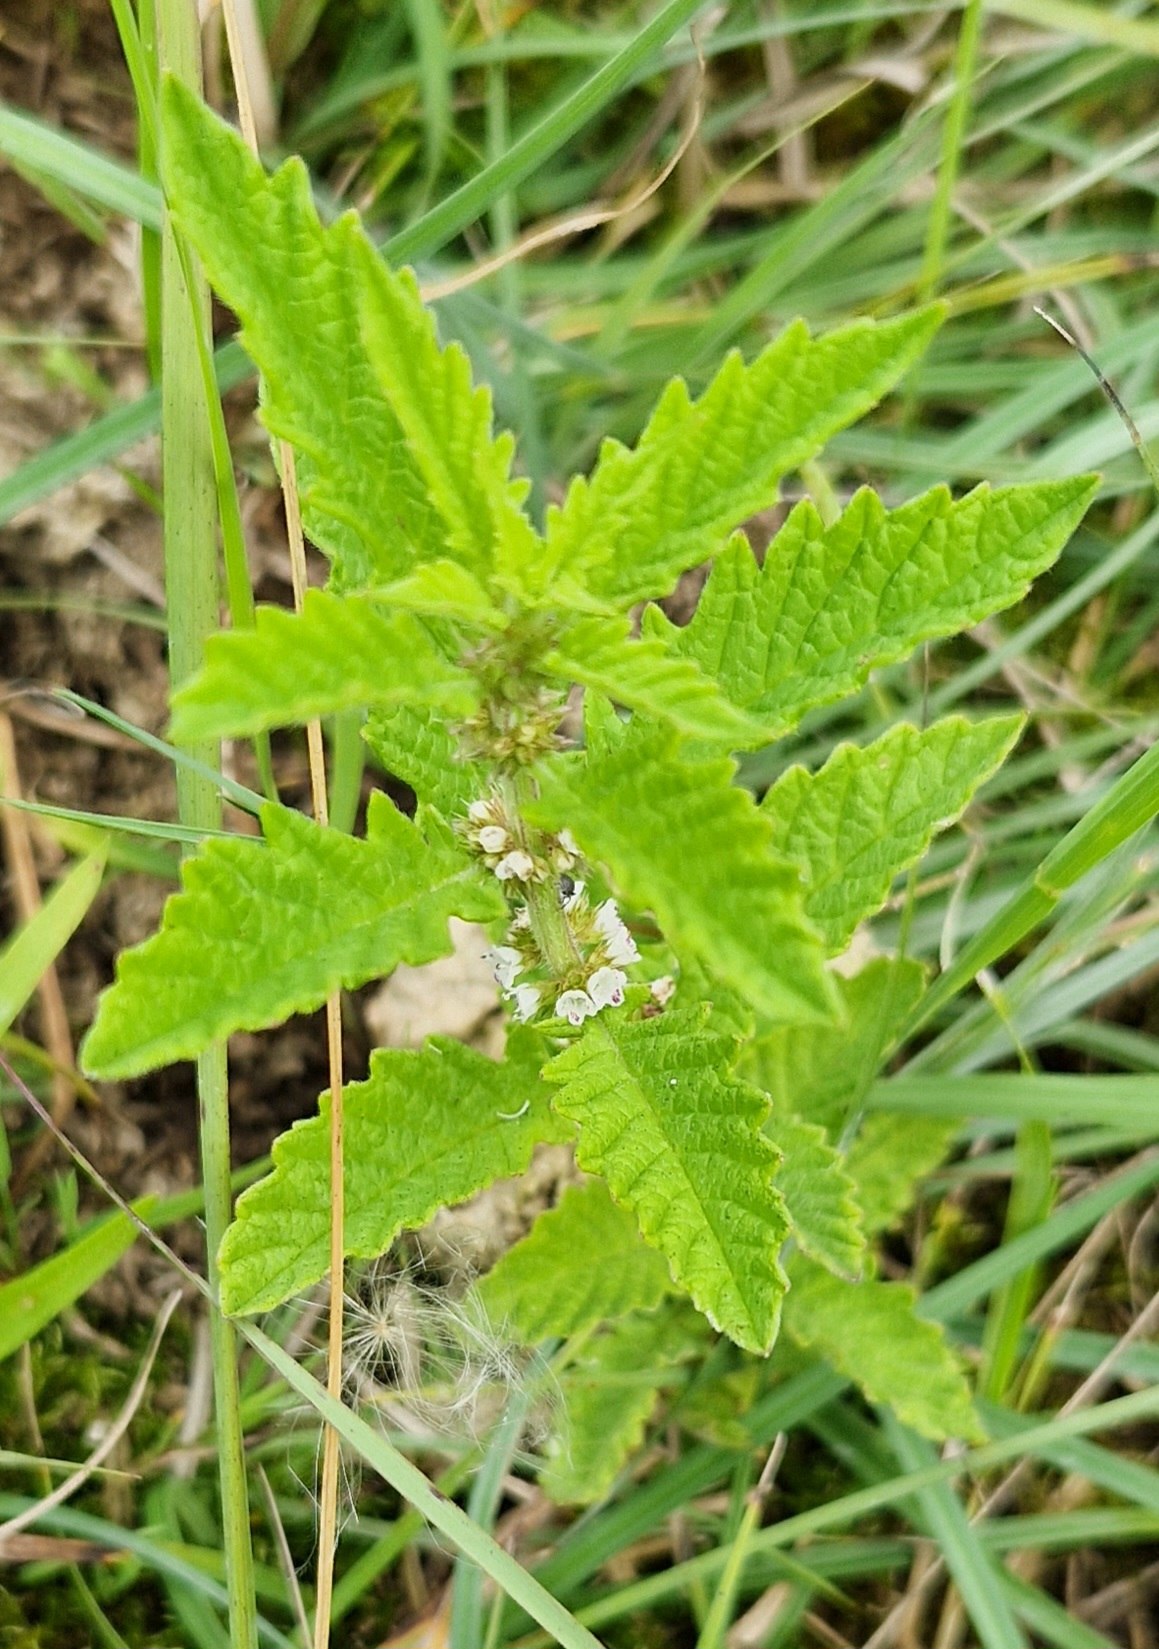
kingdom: Plantae
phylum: Tracheophyta
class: Magnoliopsida
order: Lamiales
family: Lamiaceae
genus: Lycopus
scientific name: Lycopus europaeus
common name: Sværtevæld
